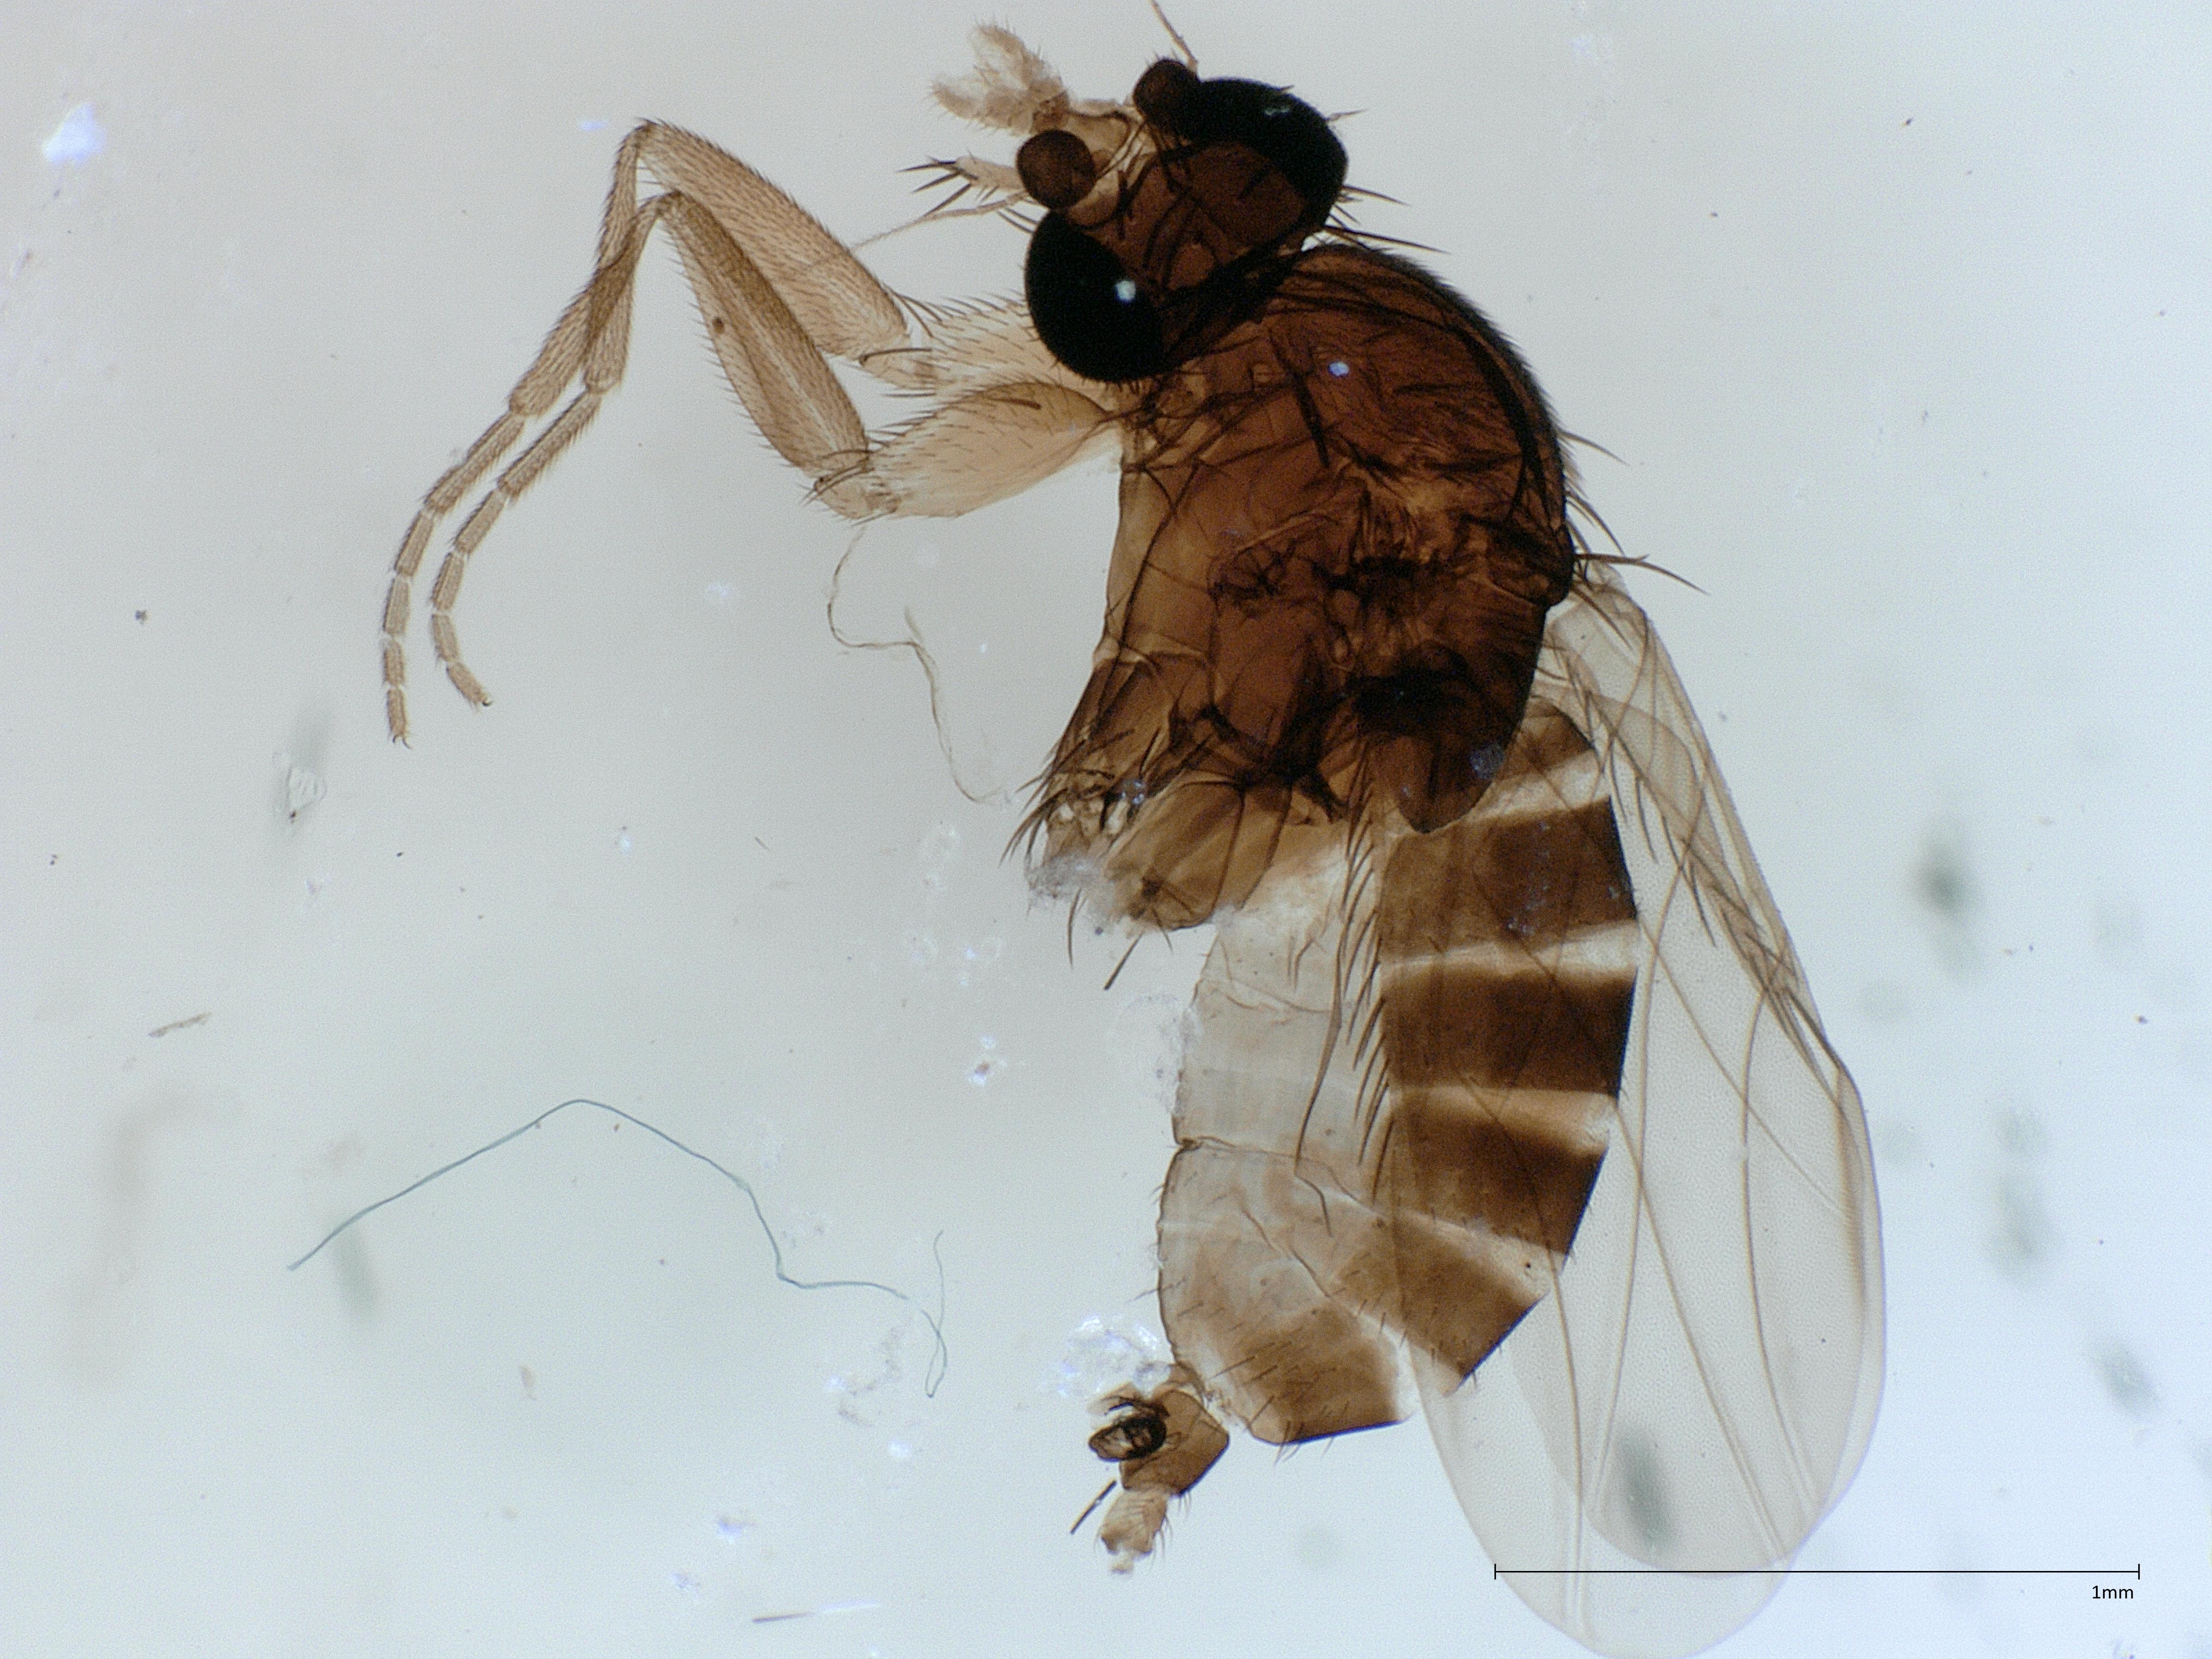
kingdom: Animalia
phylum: Arthropoda
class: Insecta
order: Diptera
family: Phoridae
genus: Megaselia
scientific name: Megaselia tarsella
